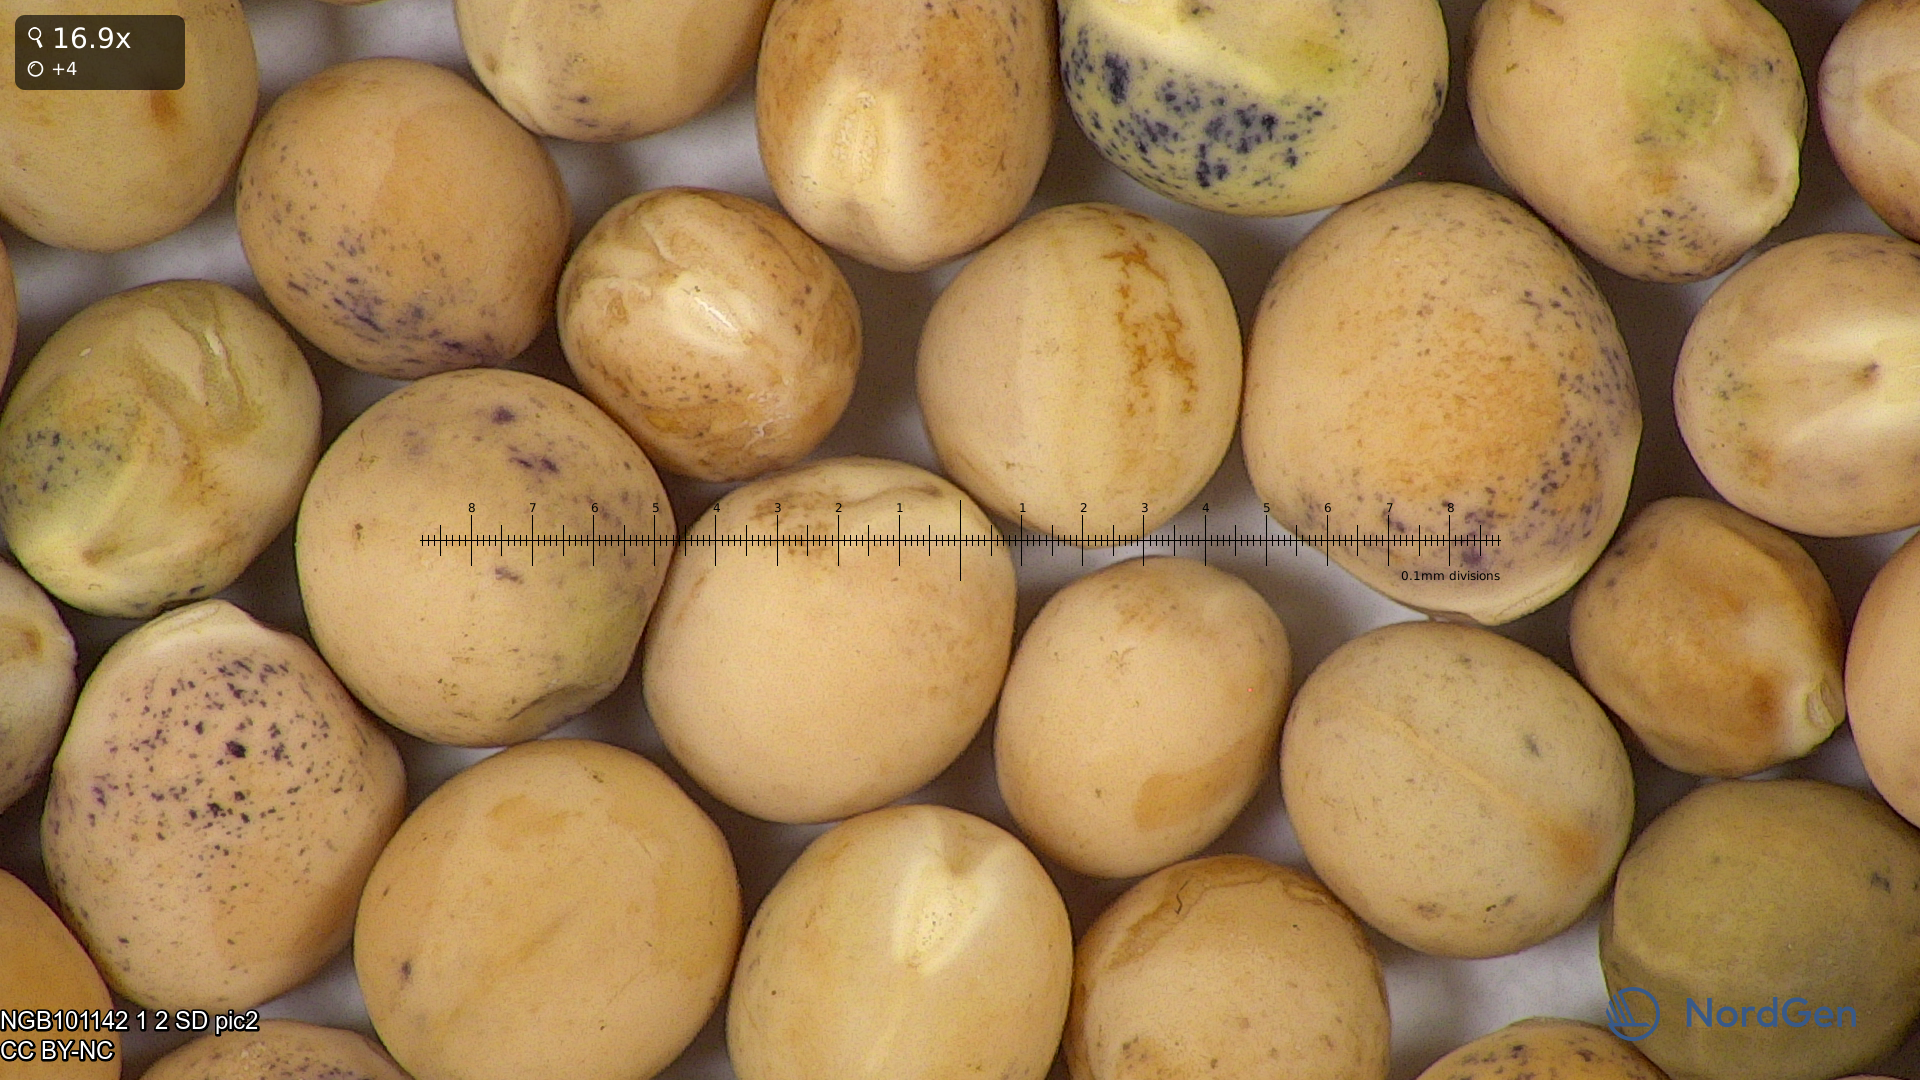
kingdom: Plantae
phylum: Tracheophyta
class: Magnoliopsida
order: Fabales
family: Fabaceae
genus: Lathyrus
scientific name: Lathyrus oleraceus
